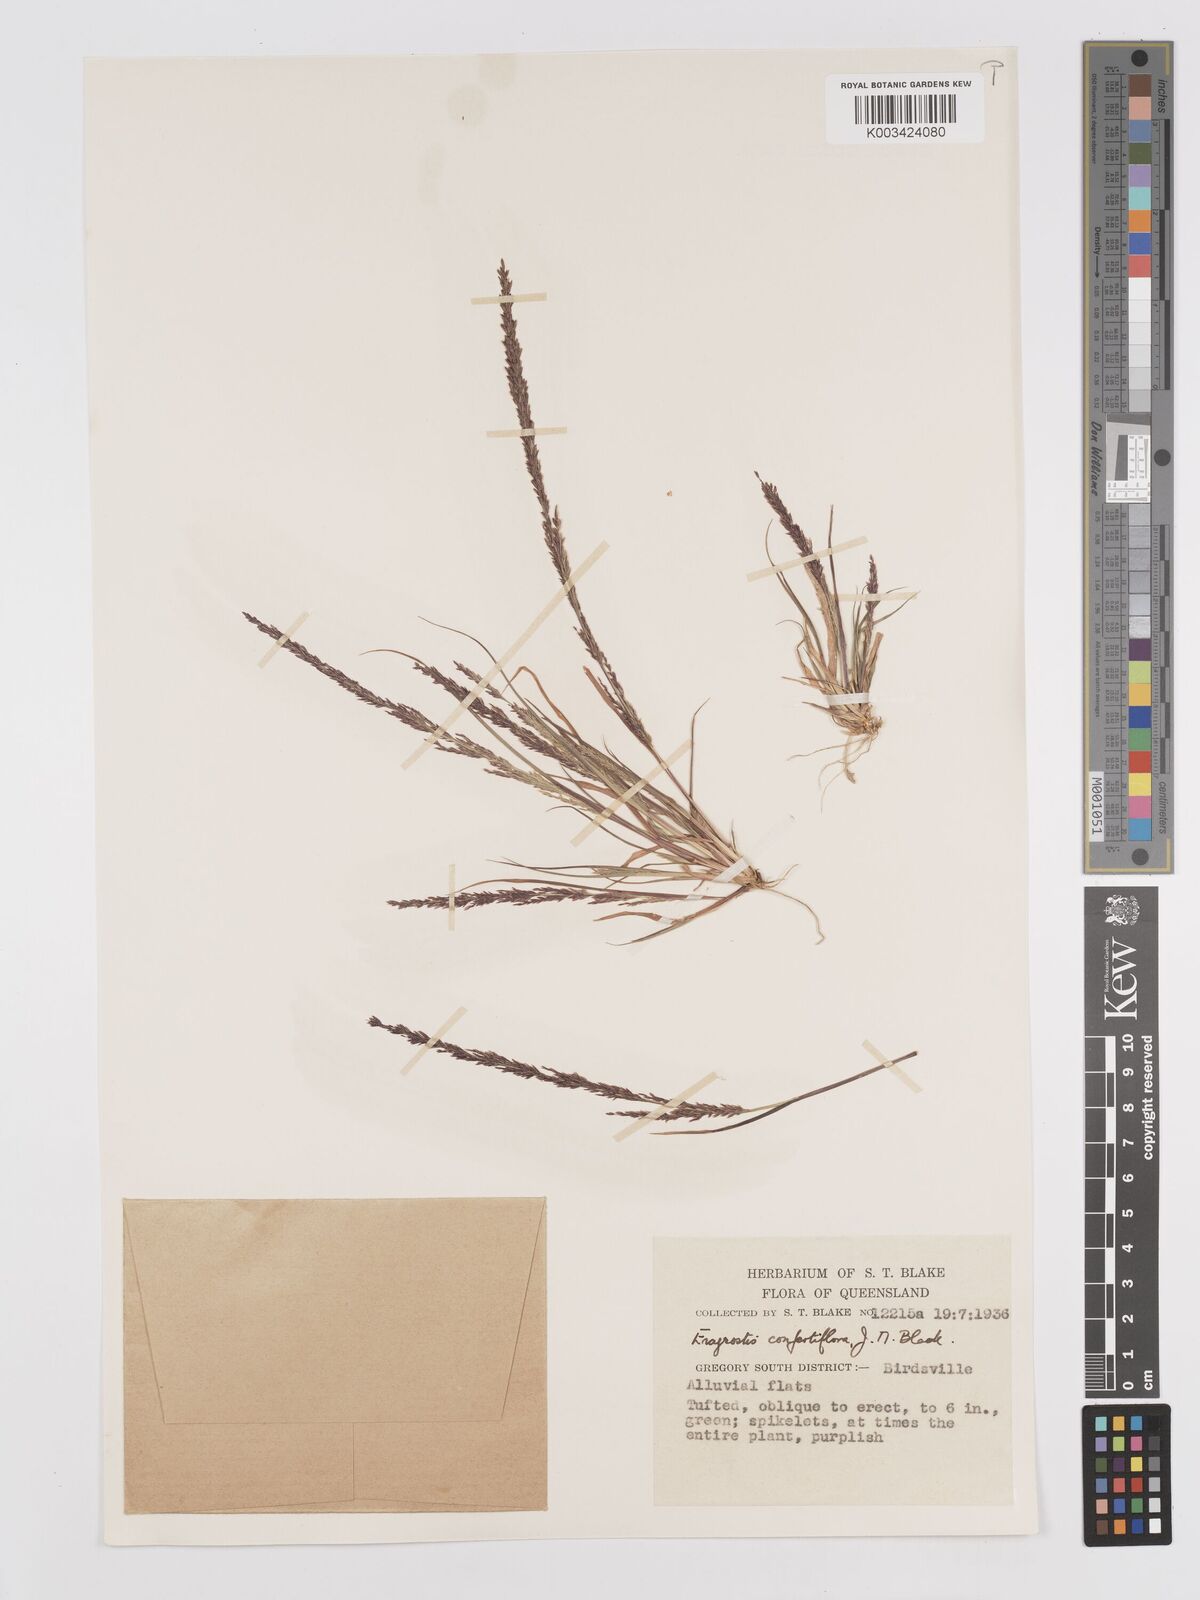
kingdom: Plantae
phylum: Tracheophyta
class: Liliopsida
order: Poales
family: Poaceae
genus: Eragrostis
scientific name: Eragrostis confertiflora
